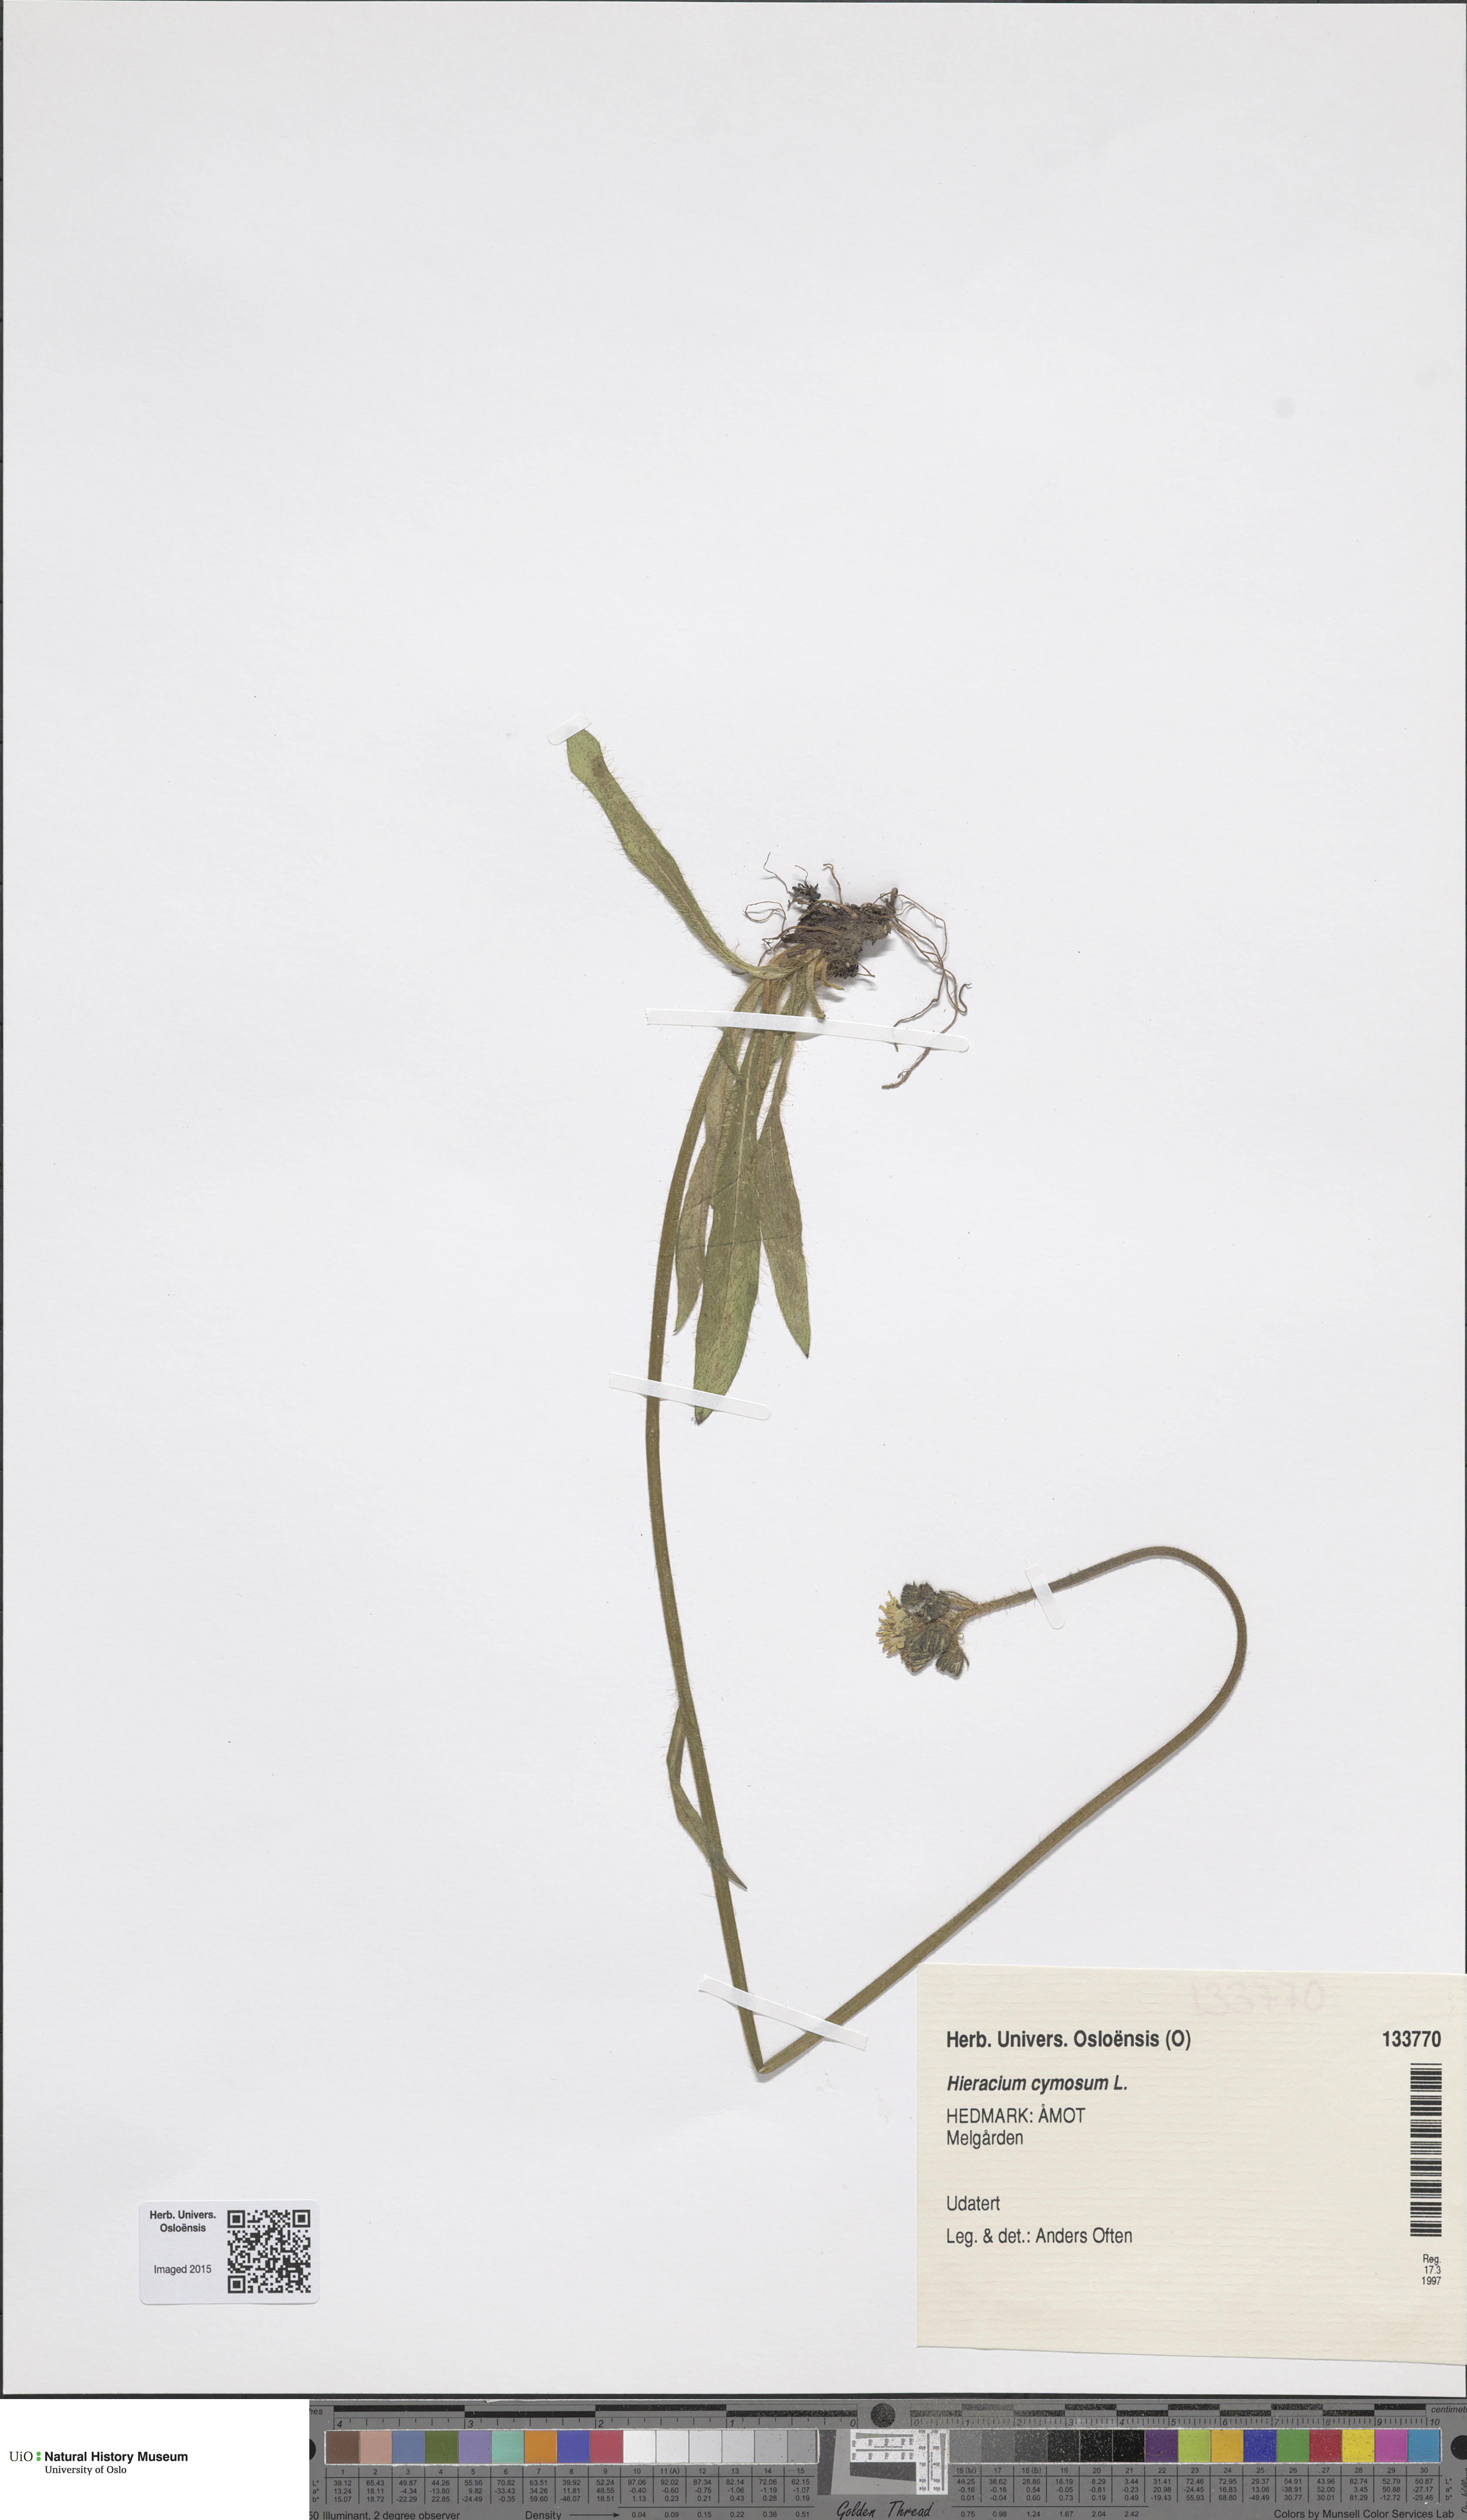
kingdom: Plantae
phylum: Tracheophyta
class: Magnoliopsida
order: Asterales
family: Asteraceae
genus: Pilosella
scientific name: Pilosella cymosa
